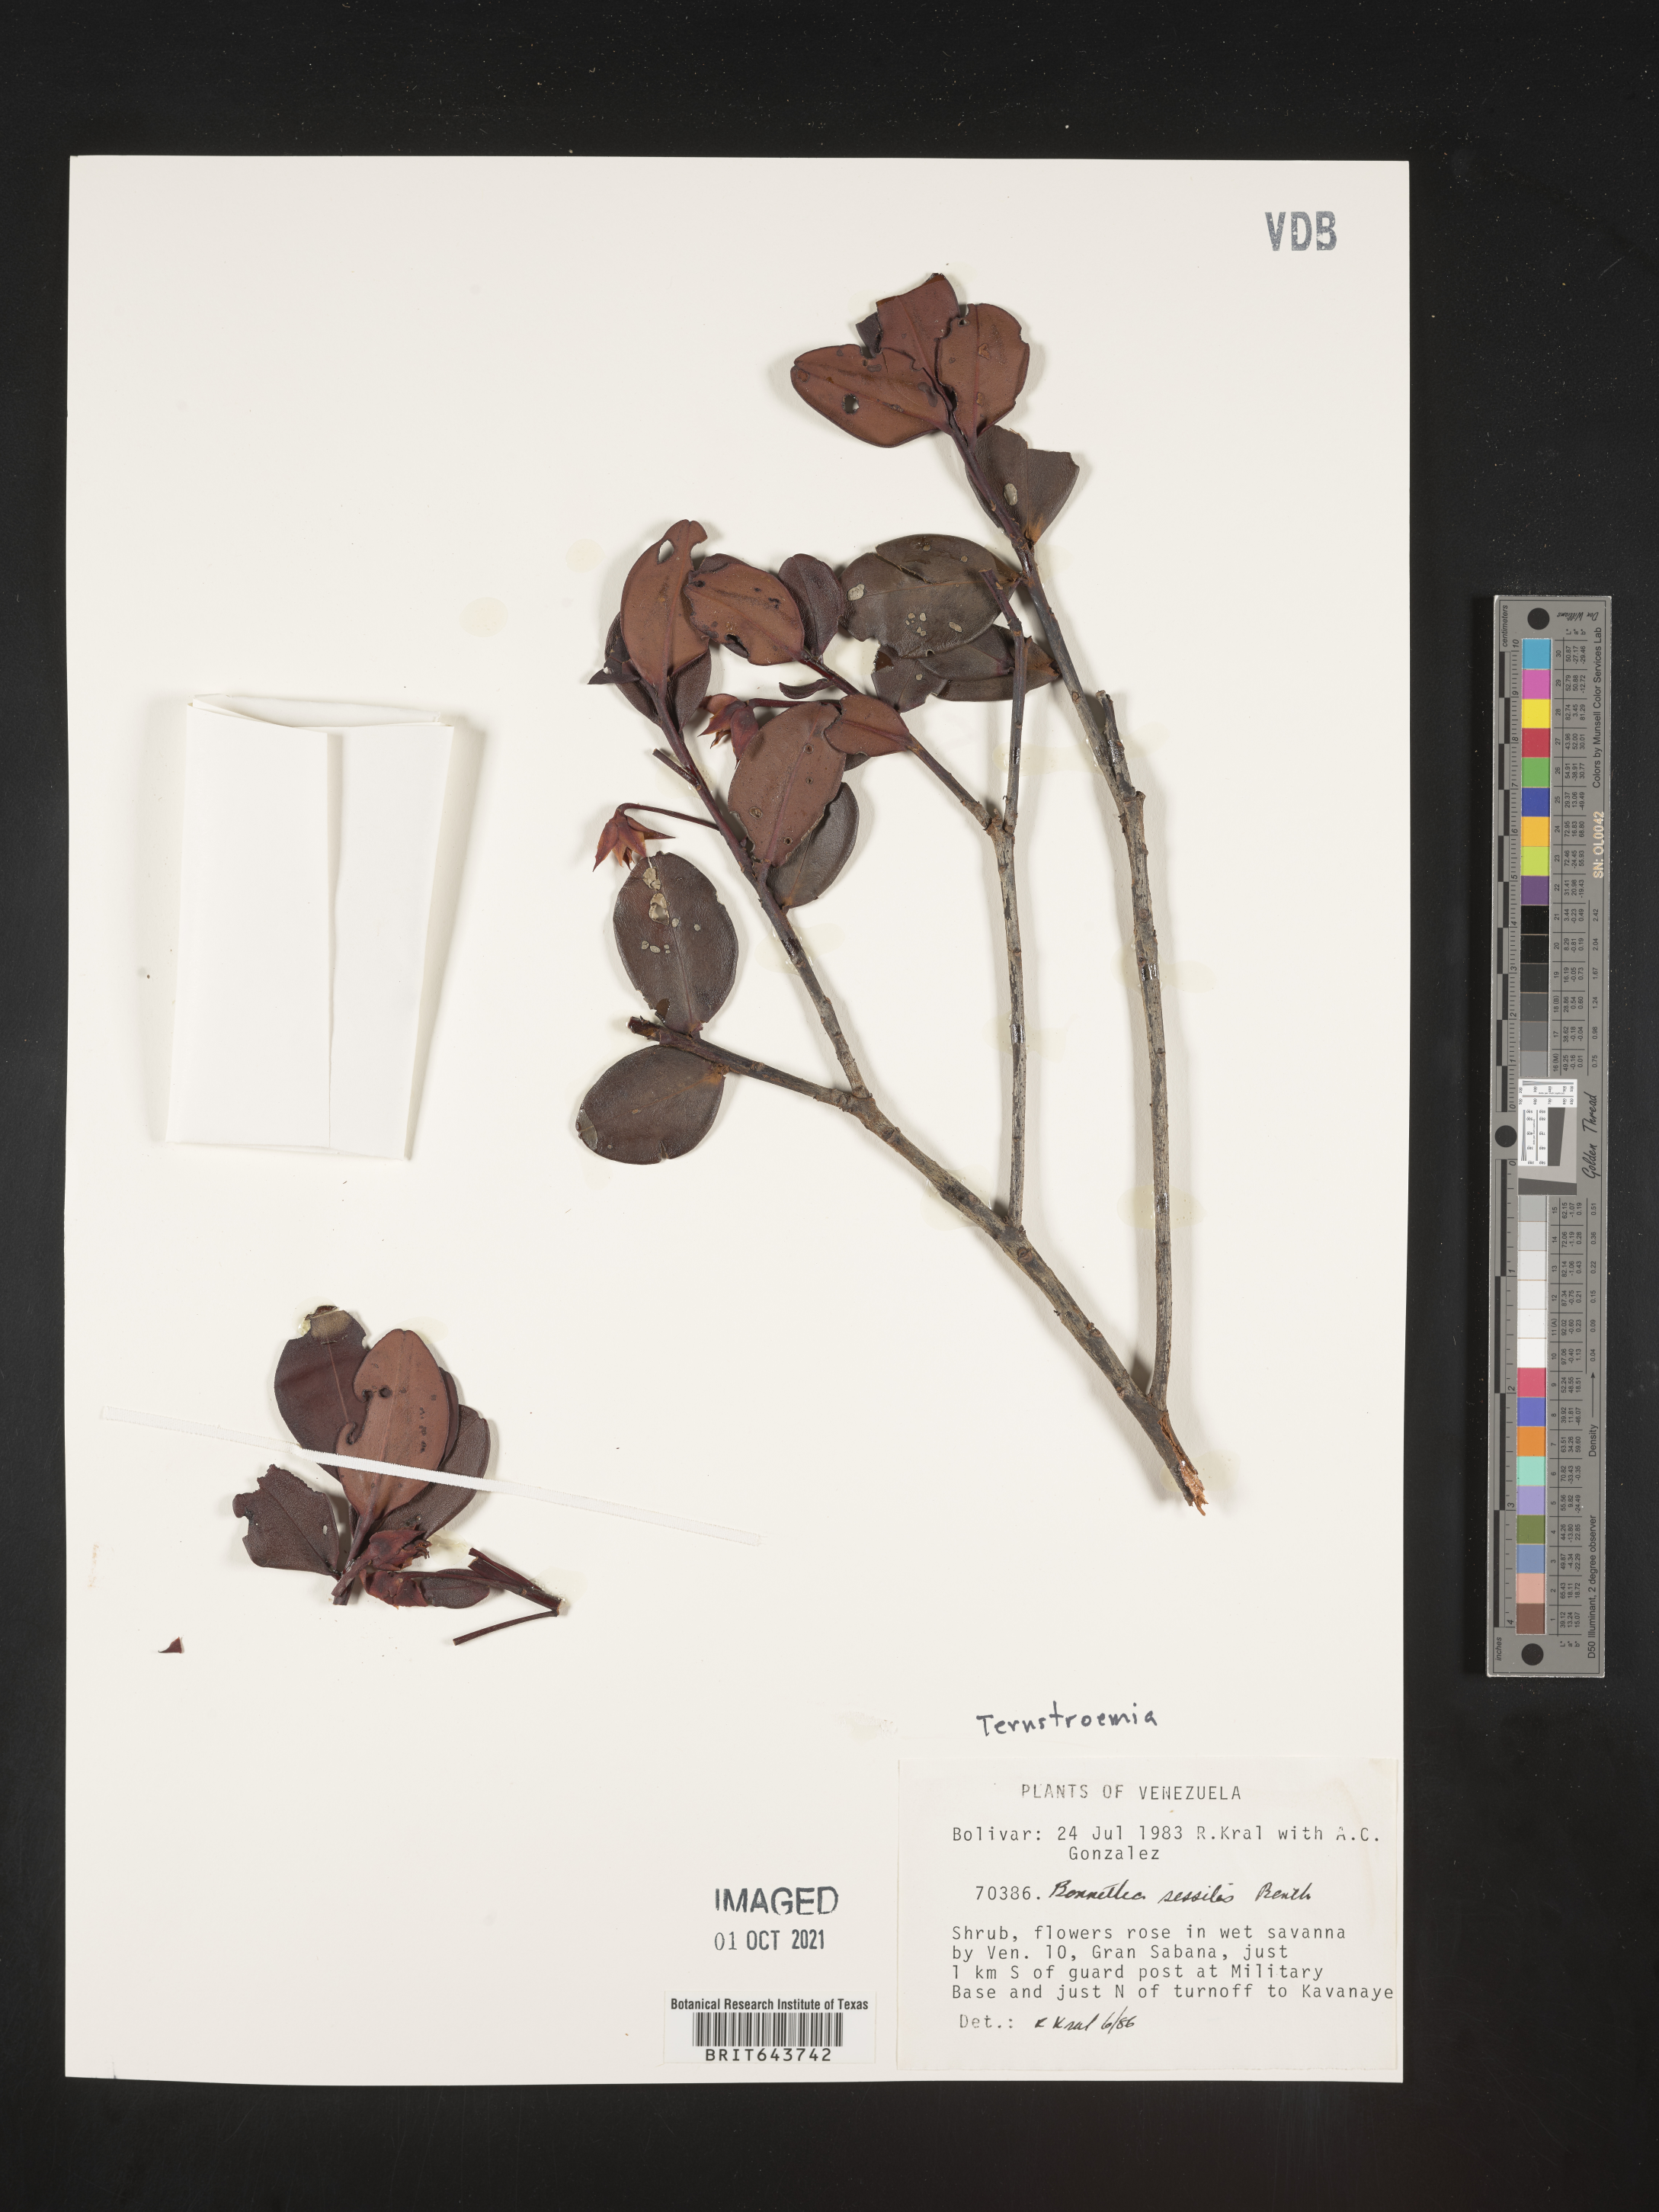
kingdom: Plantae
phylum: Tracheophyta
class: Magnoliopsida
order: Ericales
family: Pentaphylacaceae
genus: Ternstroemia
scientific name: Ternstroemia
